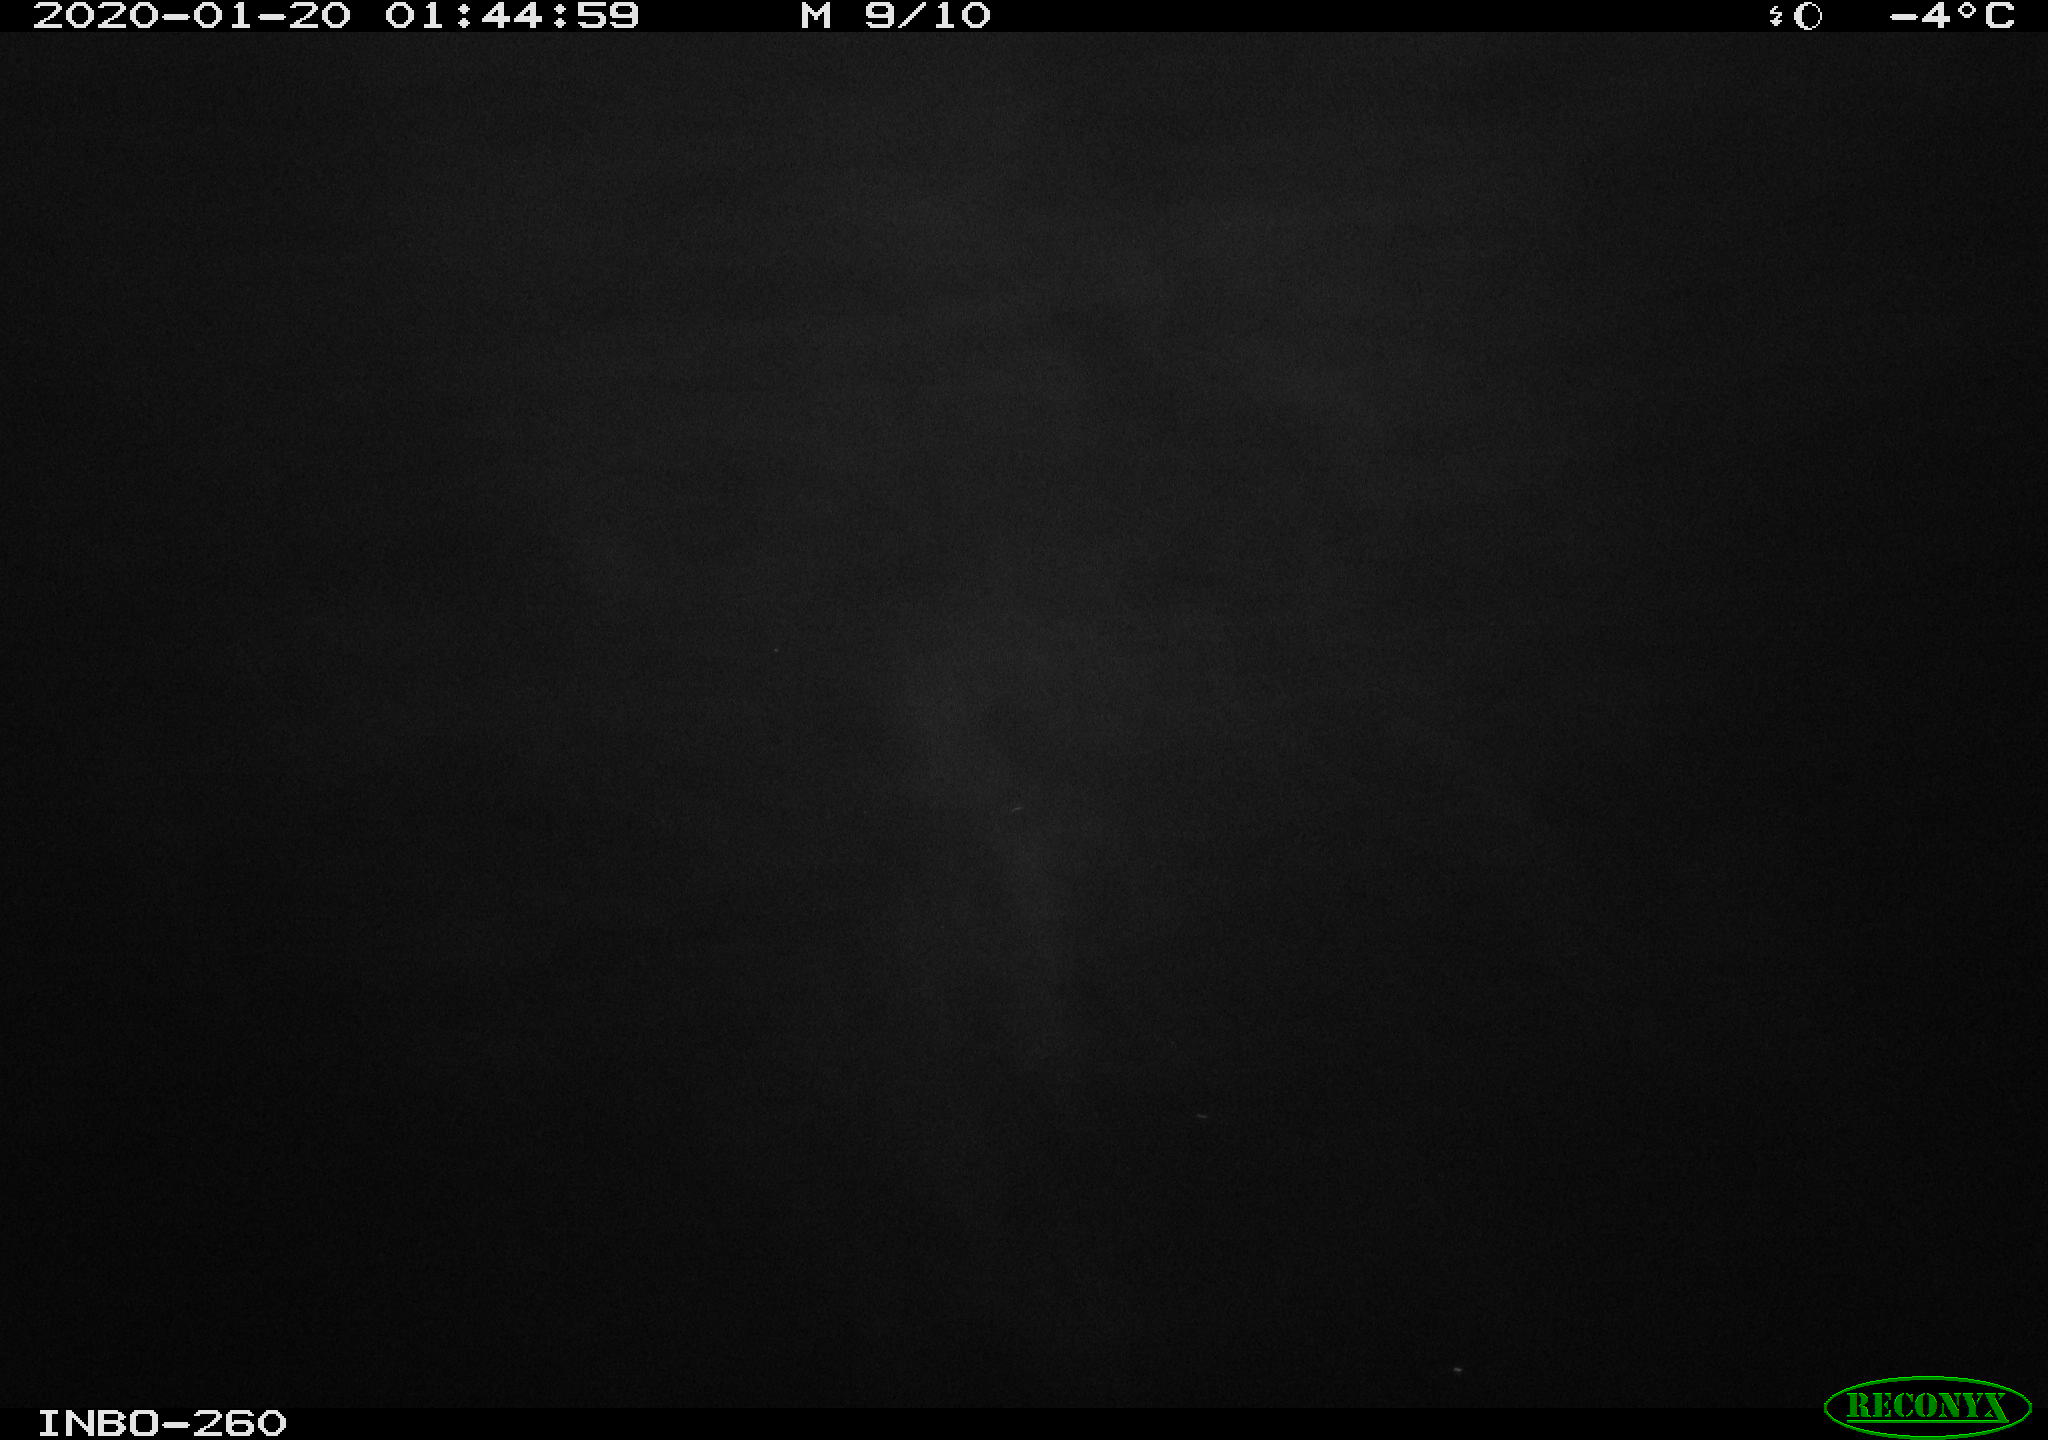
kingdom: Animalia
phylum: Chordata
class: Aves
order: Anseriformes
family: Anatidae
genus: Anas
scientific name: Anas platyrhynchos
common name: Mallard
